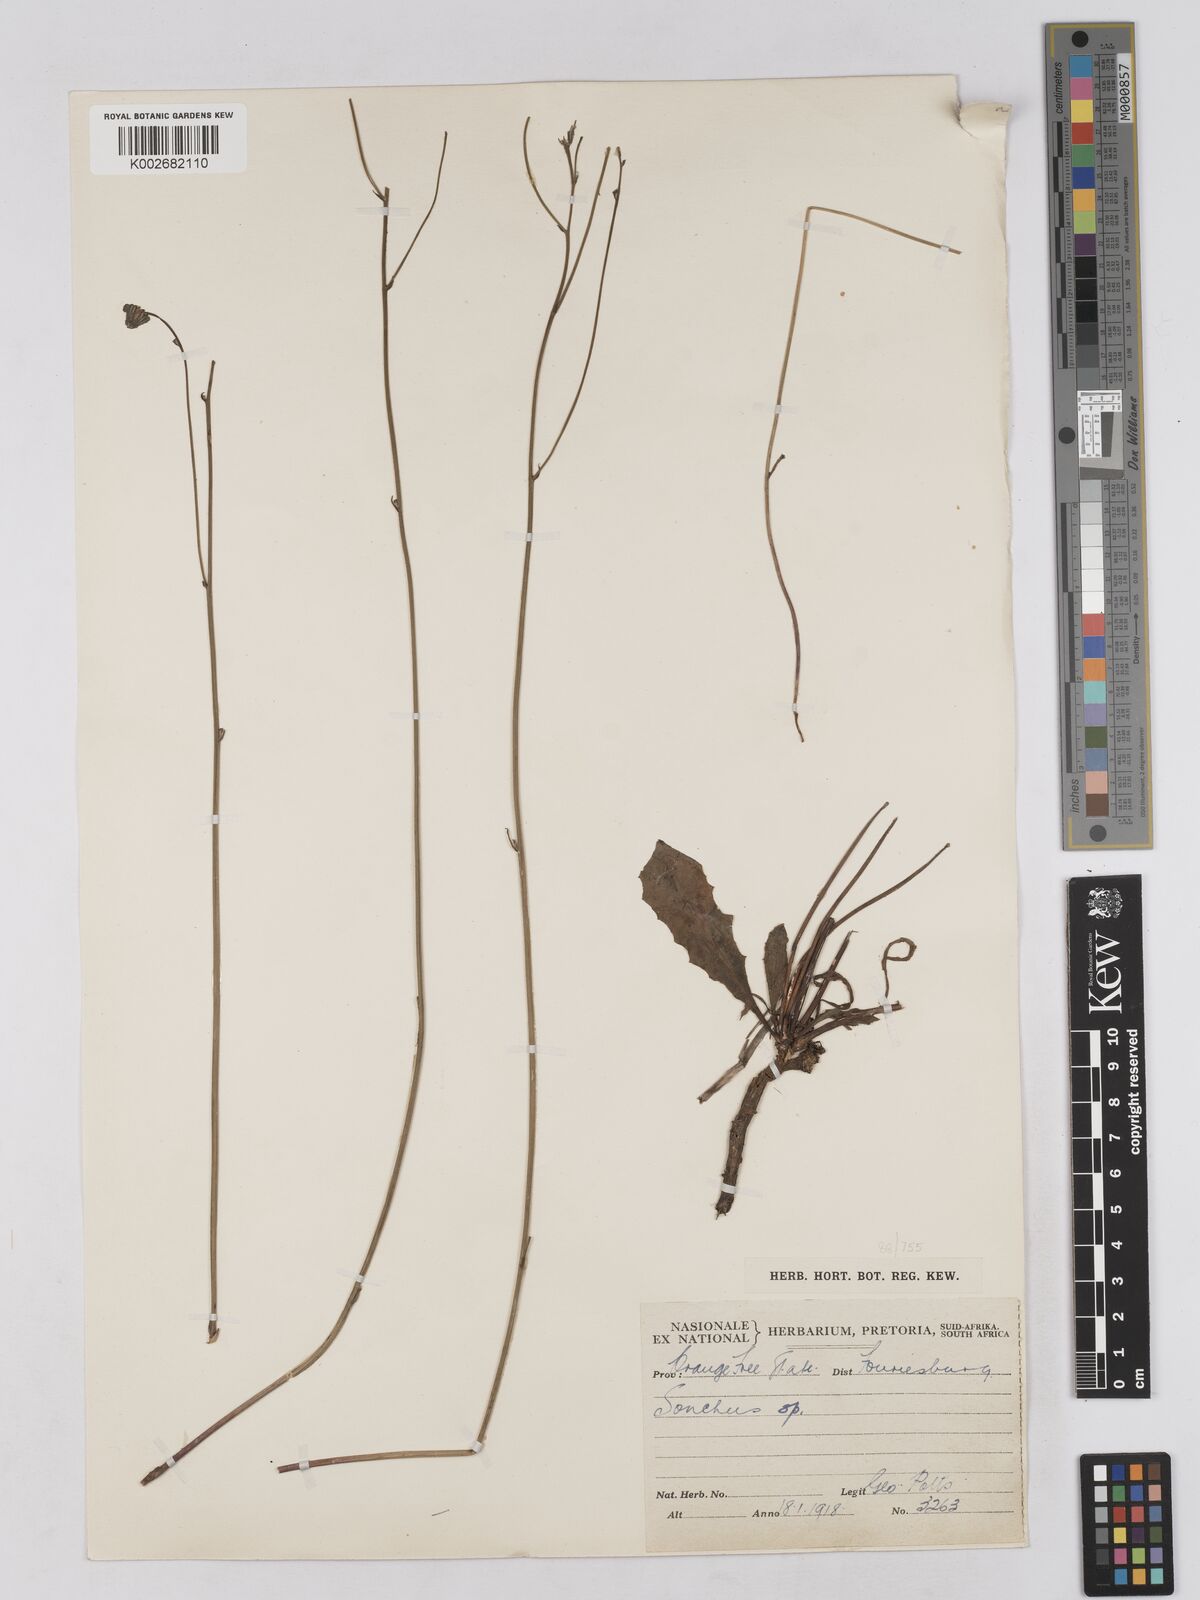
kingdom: Plantae
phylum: Tracheophyta
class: Magnoliopsida
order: Asterales
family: Asteraceae
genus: Tolpis
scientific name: Tolpis capensis
